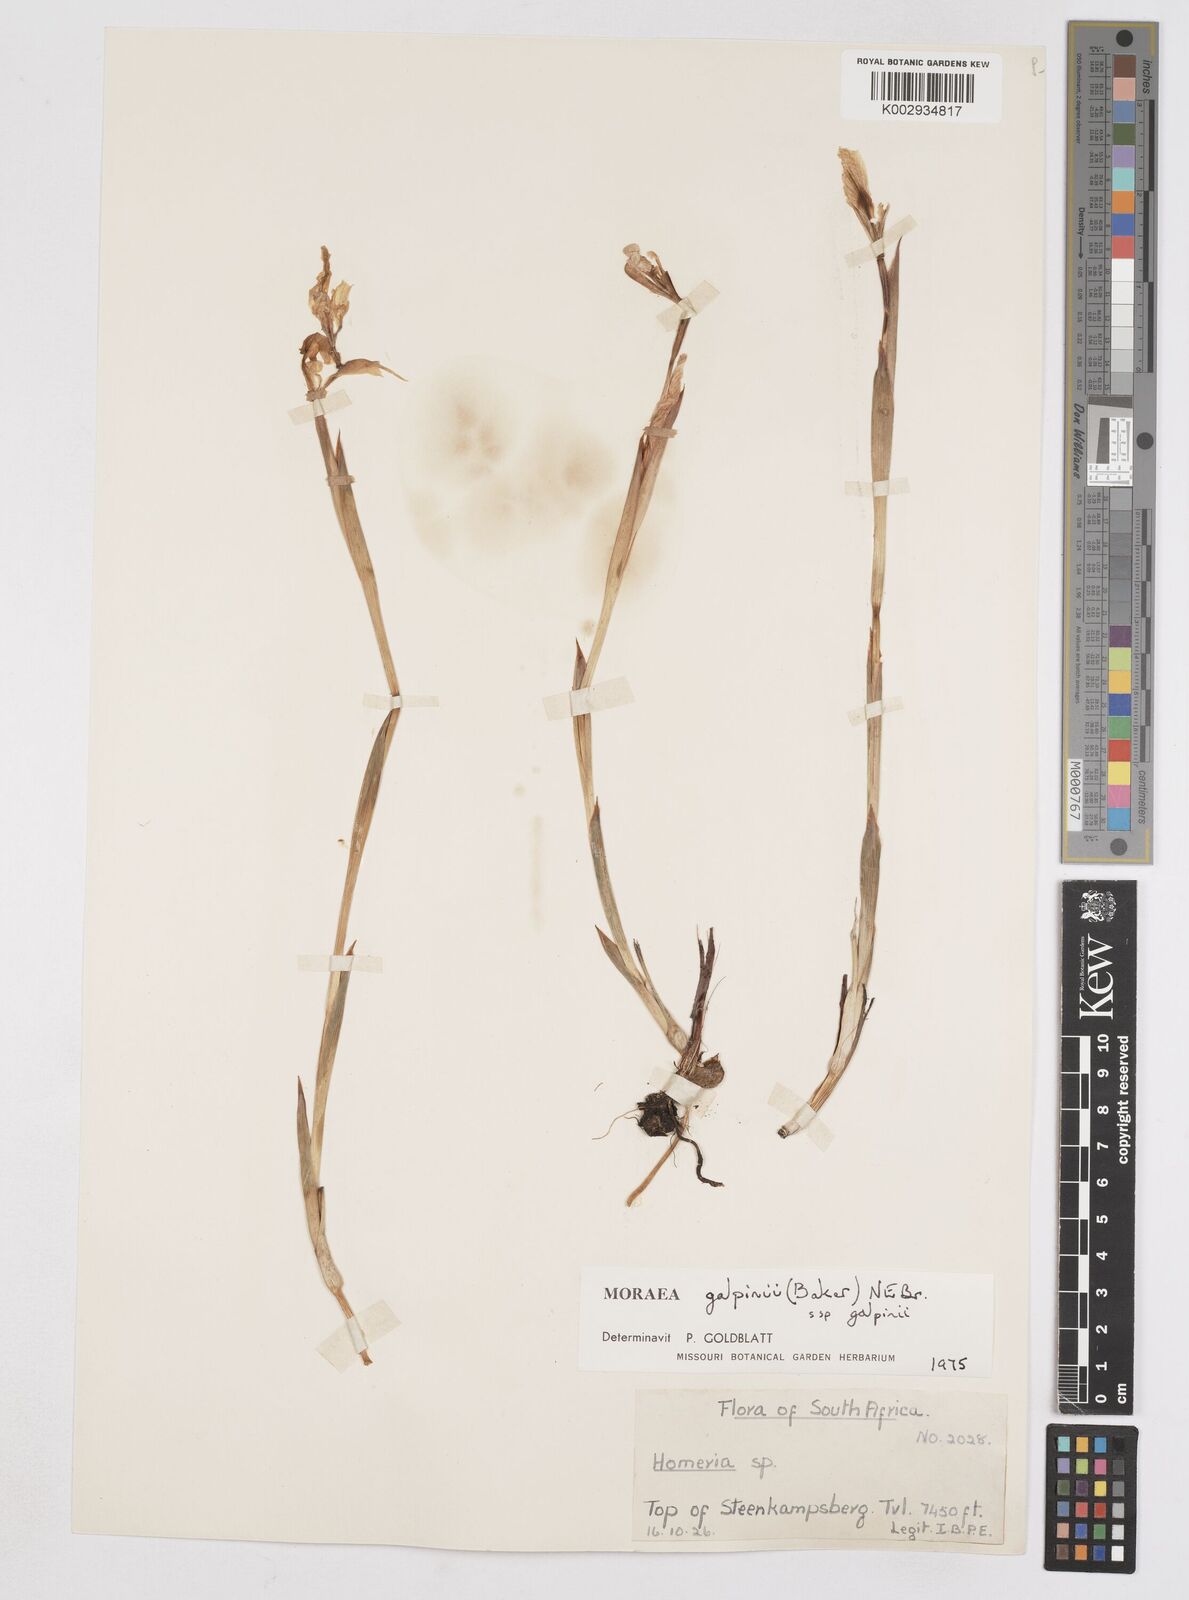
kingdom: Plantae
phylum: Tracheophyta
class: Liliopsida
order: Asparagales
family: Iridaceae
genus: Moraea
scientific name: Moraea galpinii
